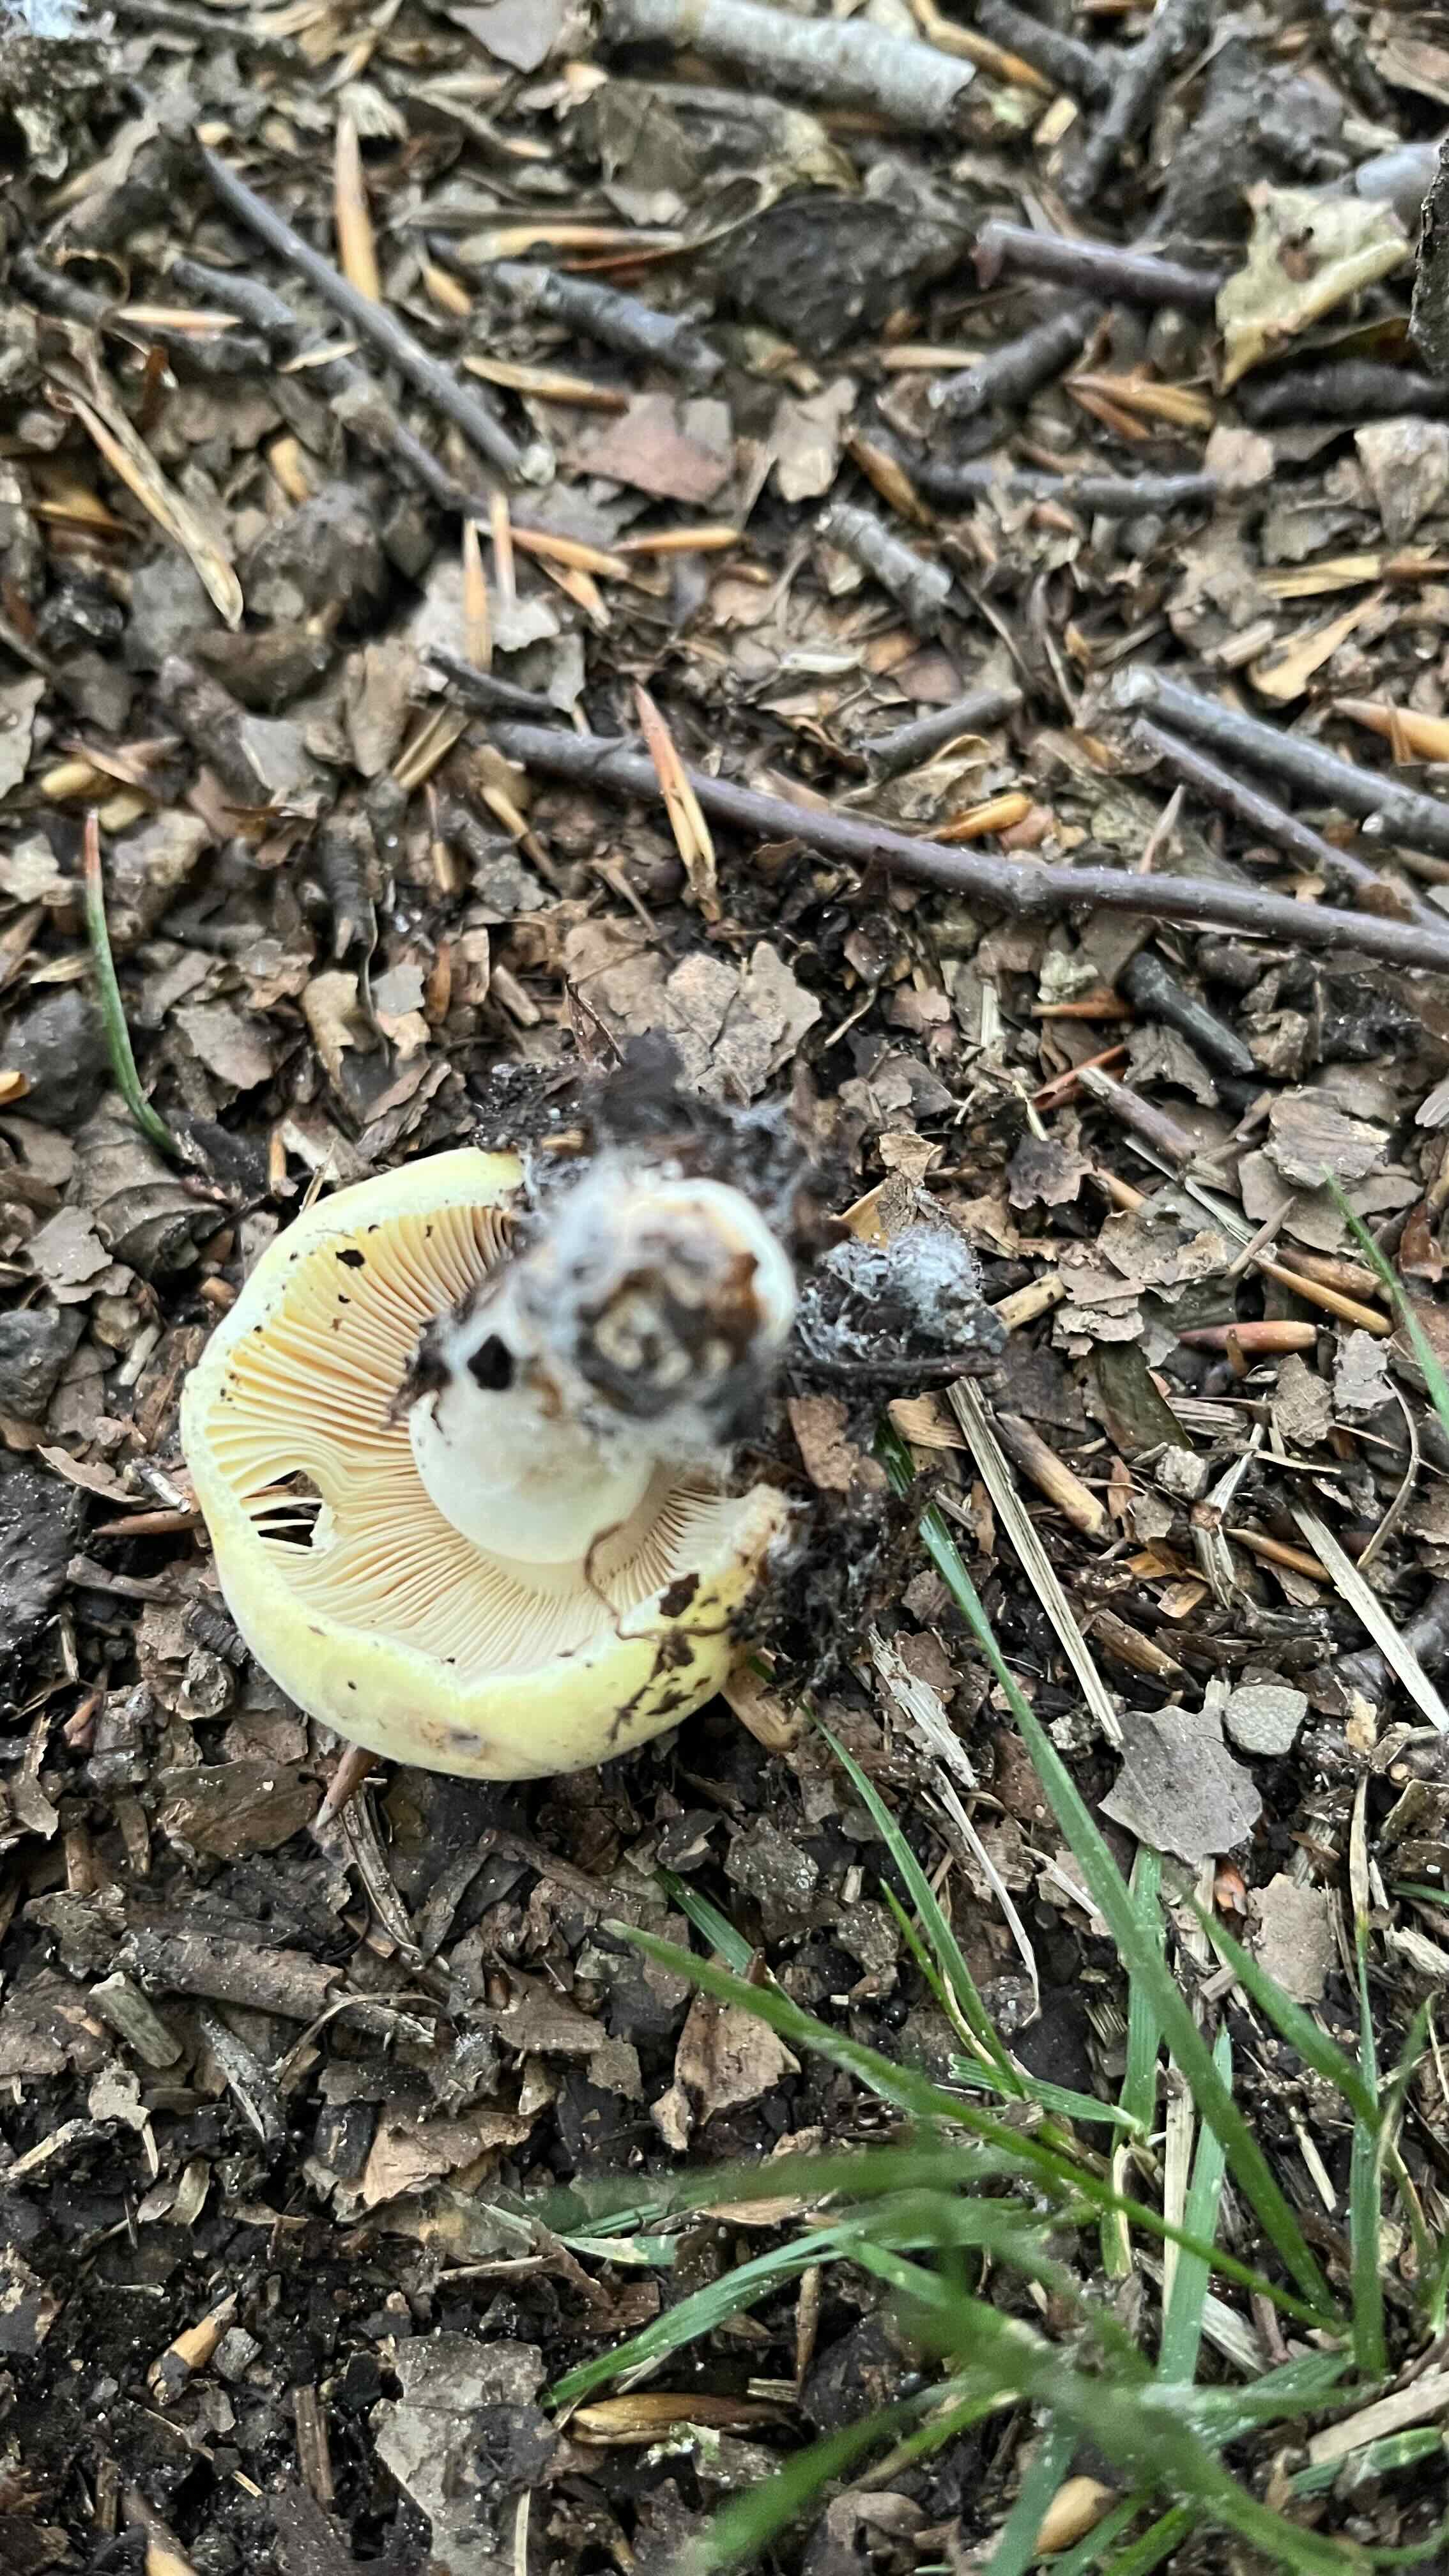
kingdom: Fungi
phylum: Basidiomycota
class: Agaricomycetes
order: Russulales
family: Russulaceae
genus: Russula
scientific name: Russula violeipes
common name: ferskengul skørhat
